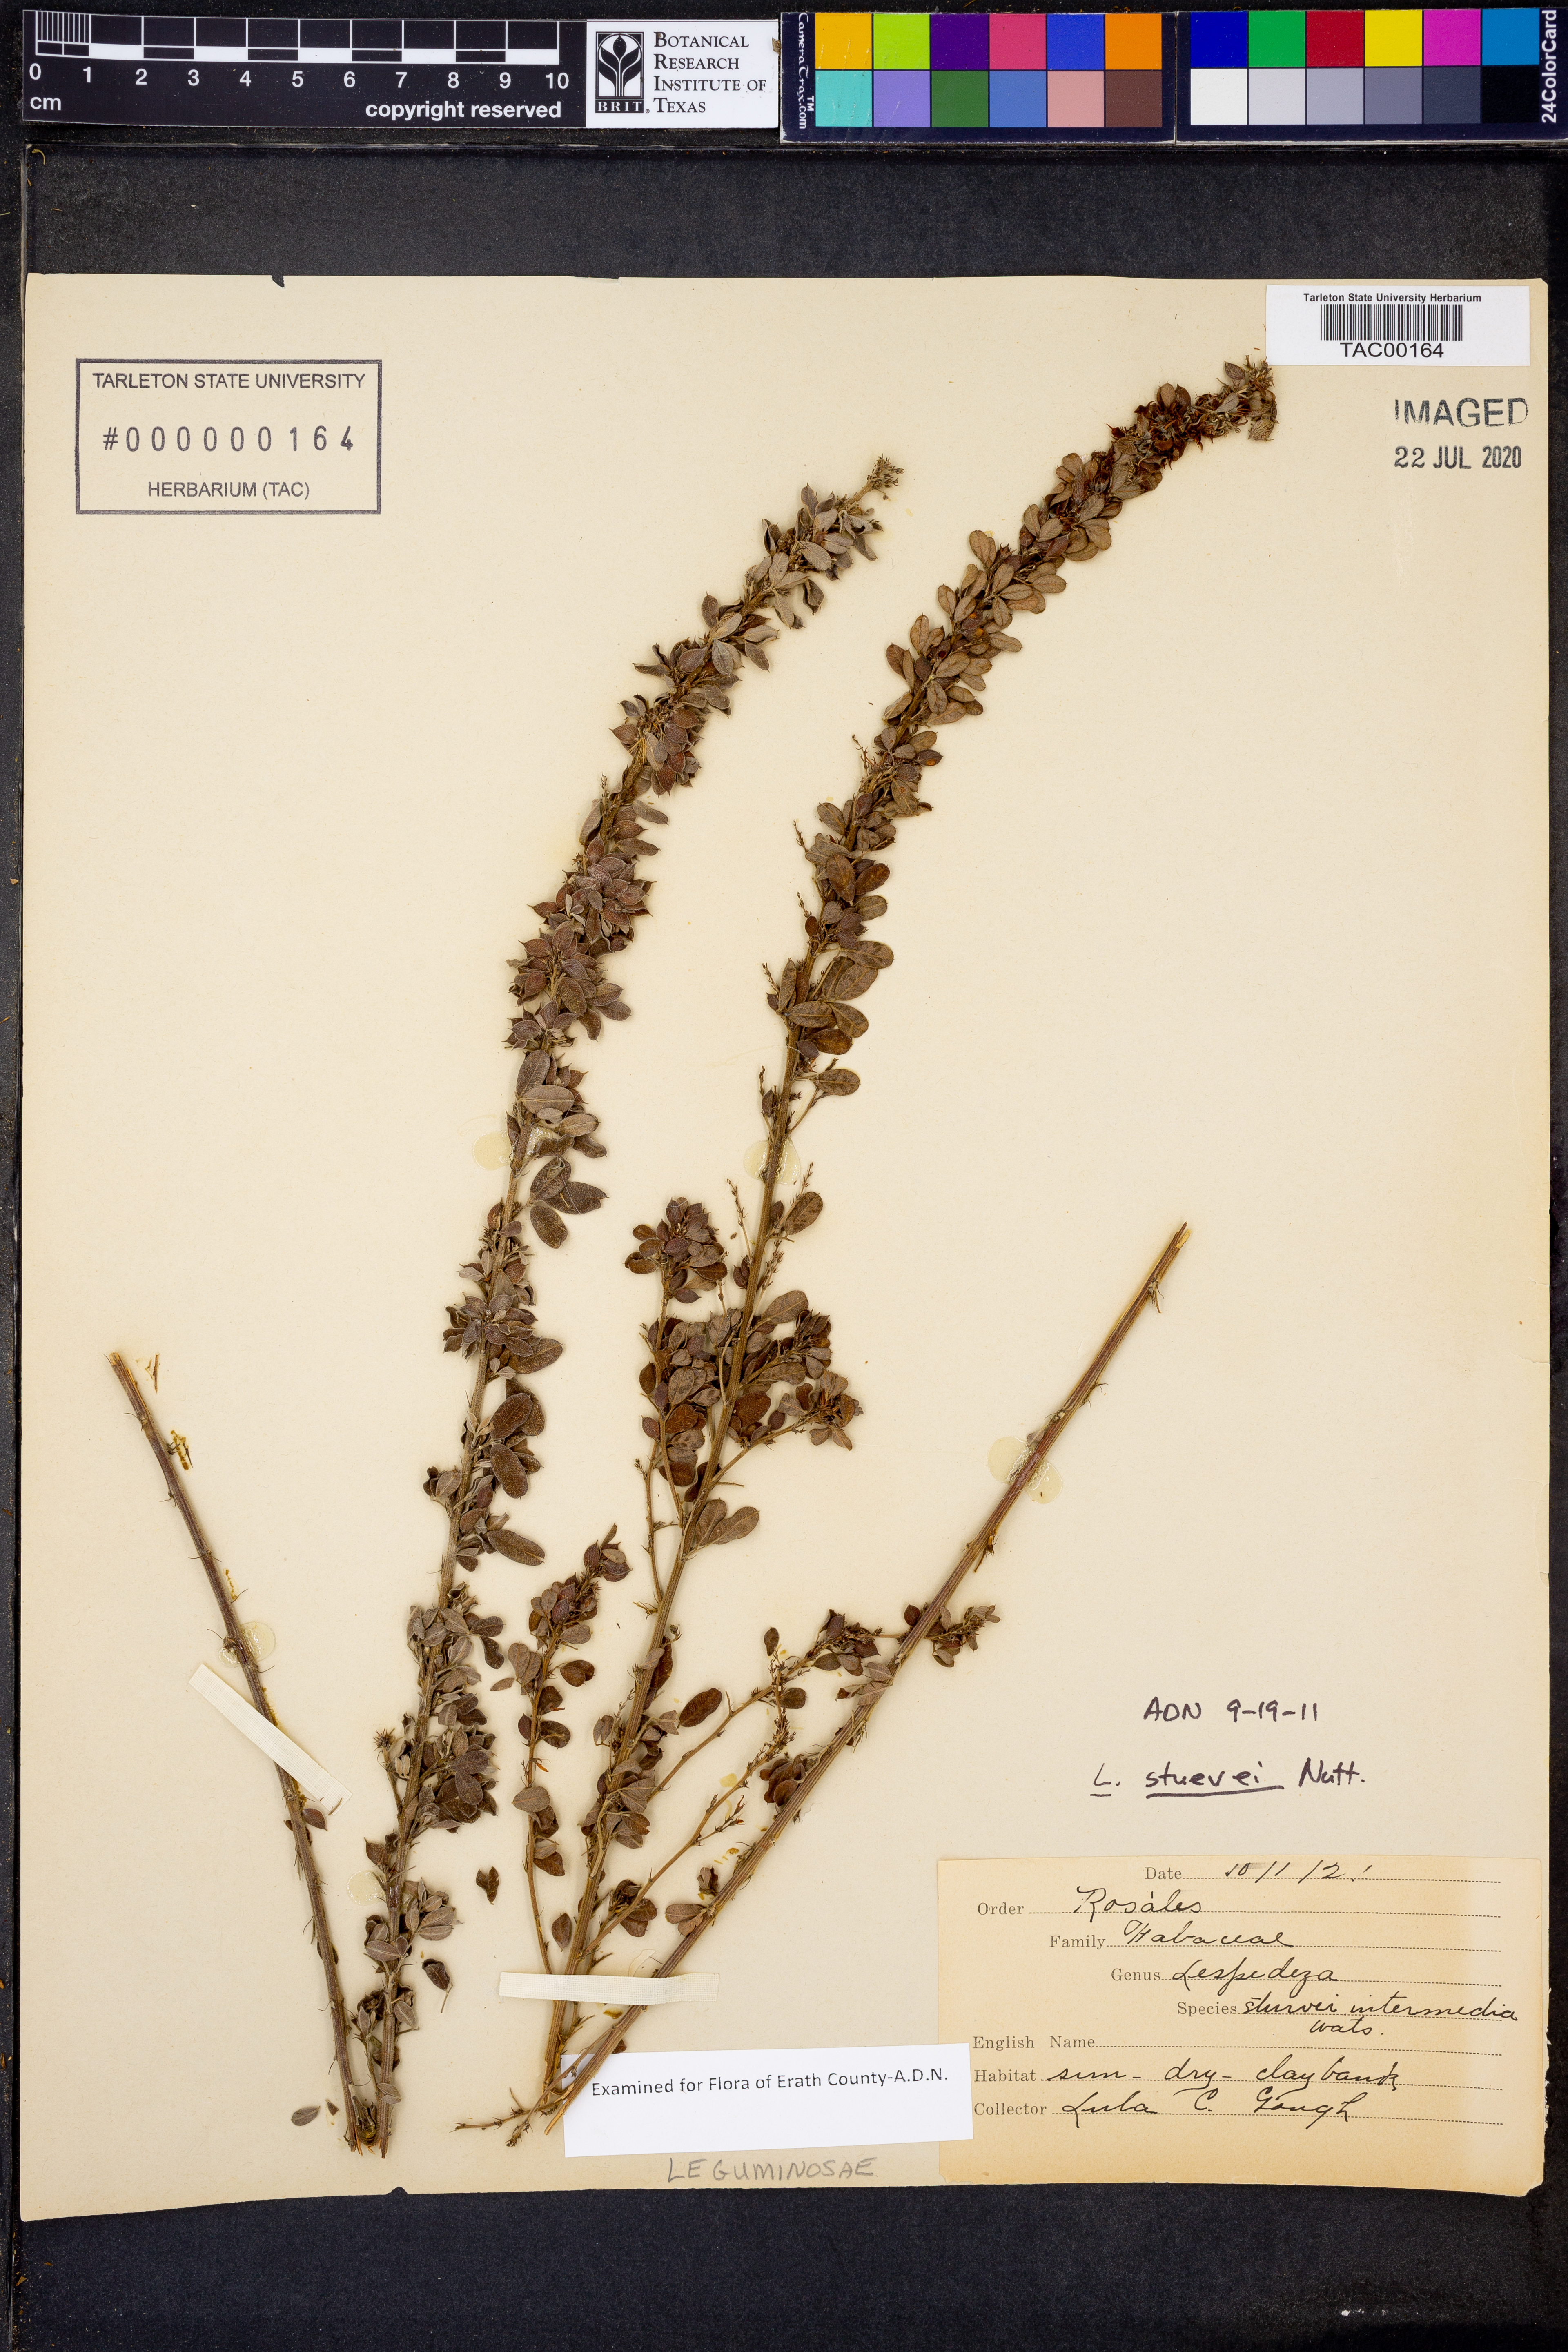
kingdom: Plantae
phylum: Tracheophyta
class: Magnoliopsida
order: Fabales
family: Fabaceae
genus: Lespedeza
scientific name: Lespedeza stuevei
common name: Tall bush-clover
